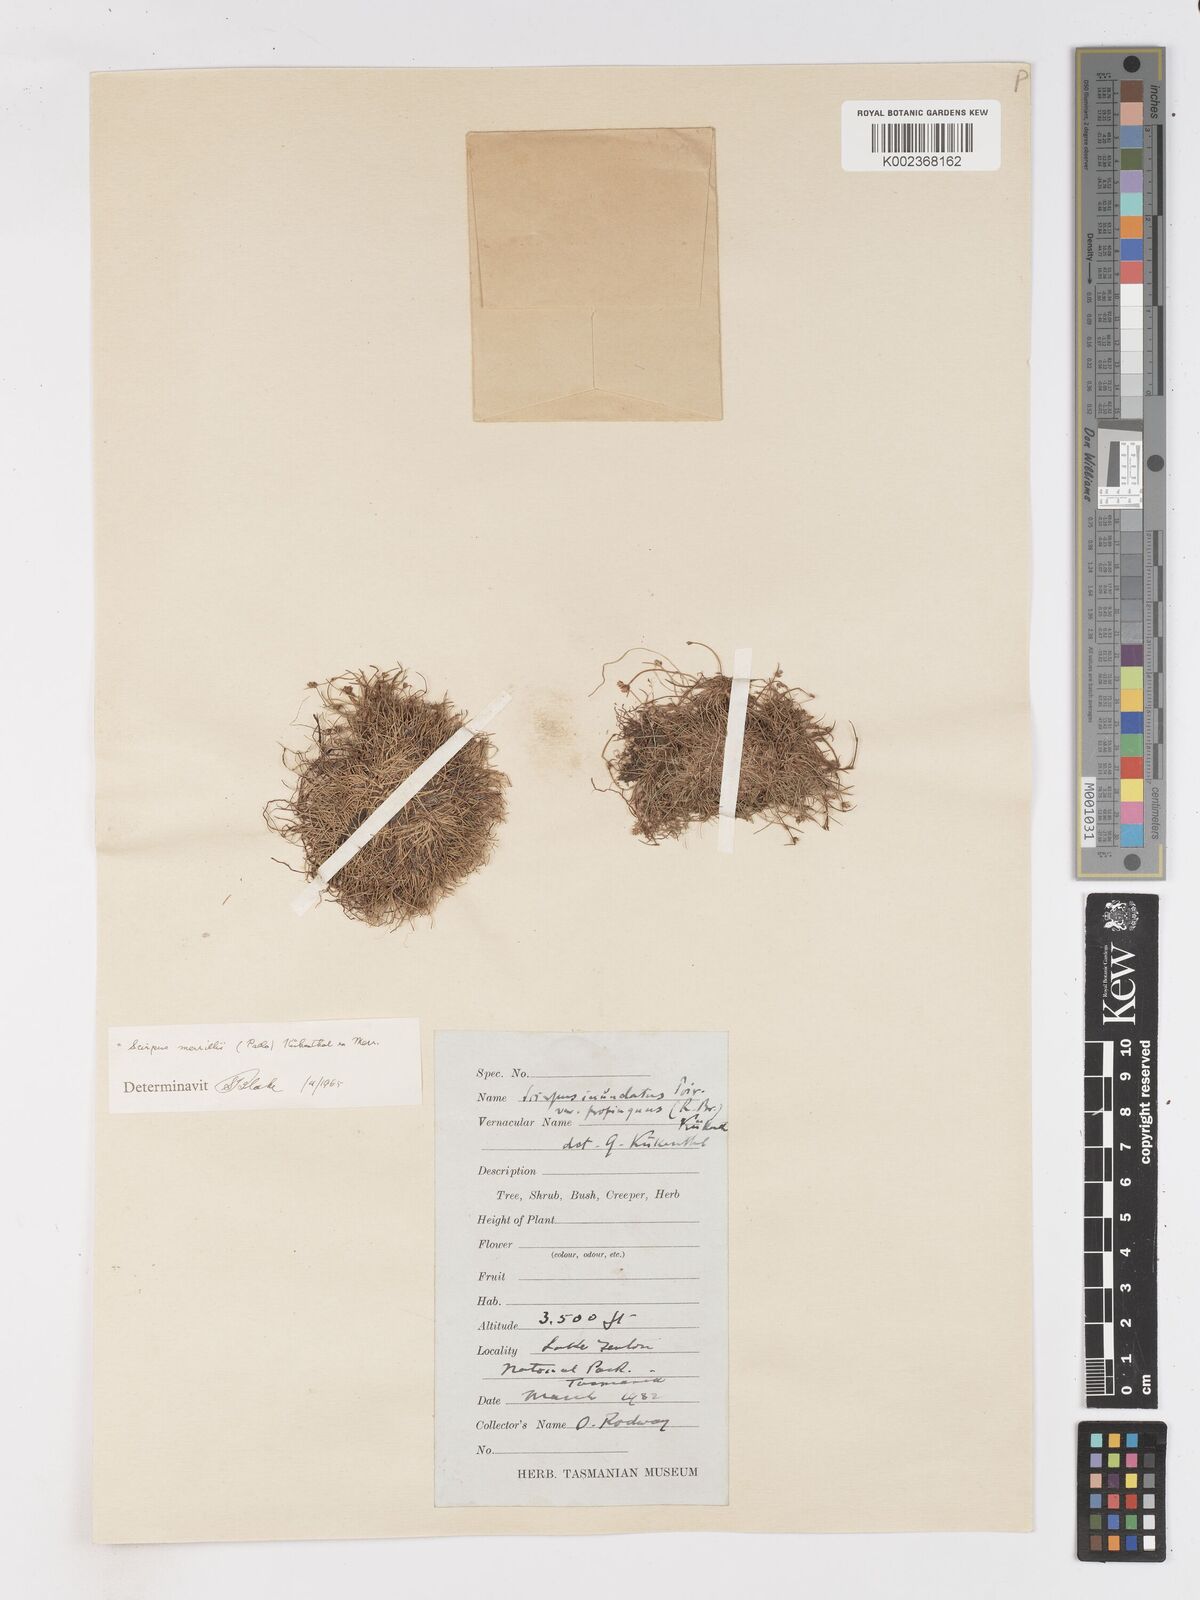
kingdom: Plantae
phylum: Tracheophyta
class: Liliopsida
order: Poales
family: Cyperaceae
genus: Isolepis
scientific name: Isolepis subtilissima
